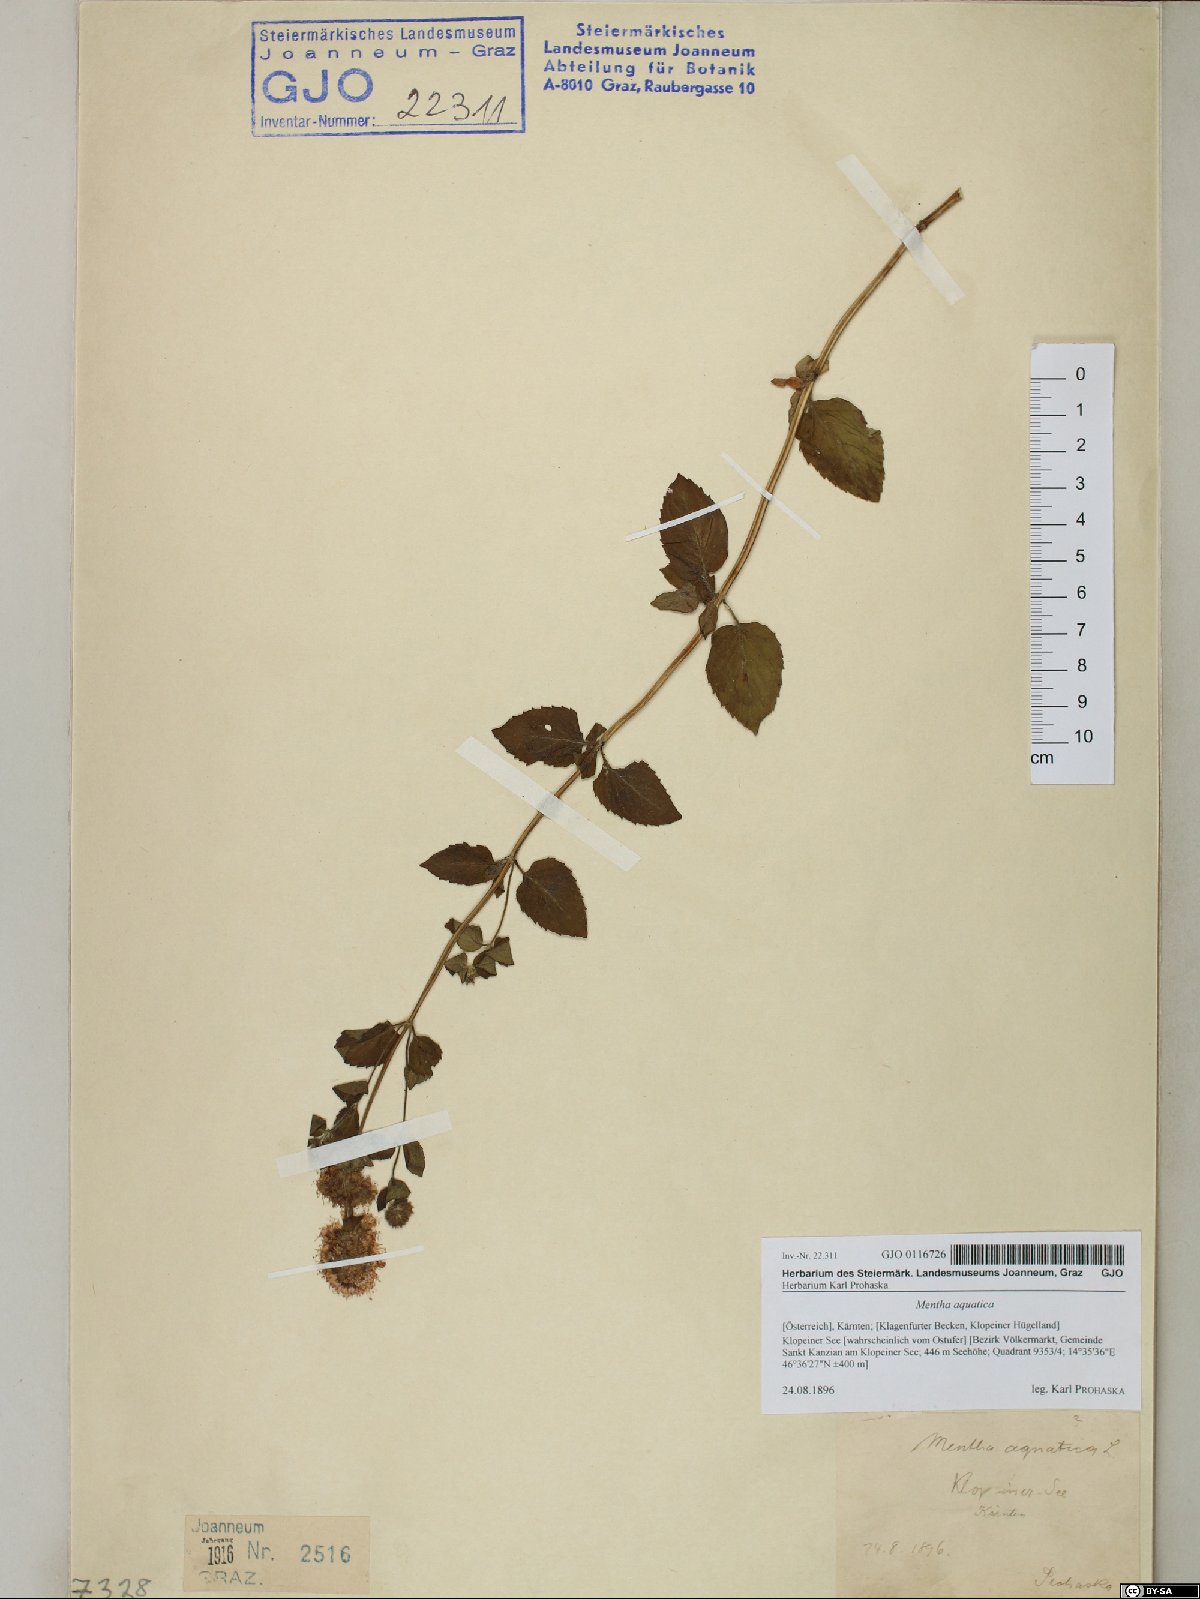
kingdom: Plantae
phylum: Tracheophyta
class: Magnoliopsida
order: Lamiales
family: Lamiaceae
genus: Mentha
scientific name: Mentha aquatica
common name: Water mint
